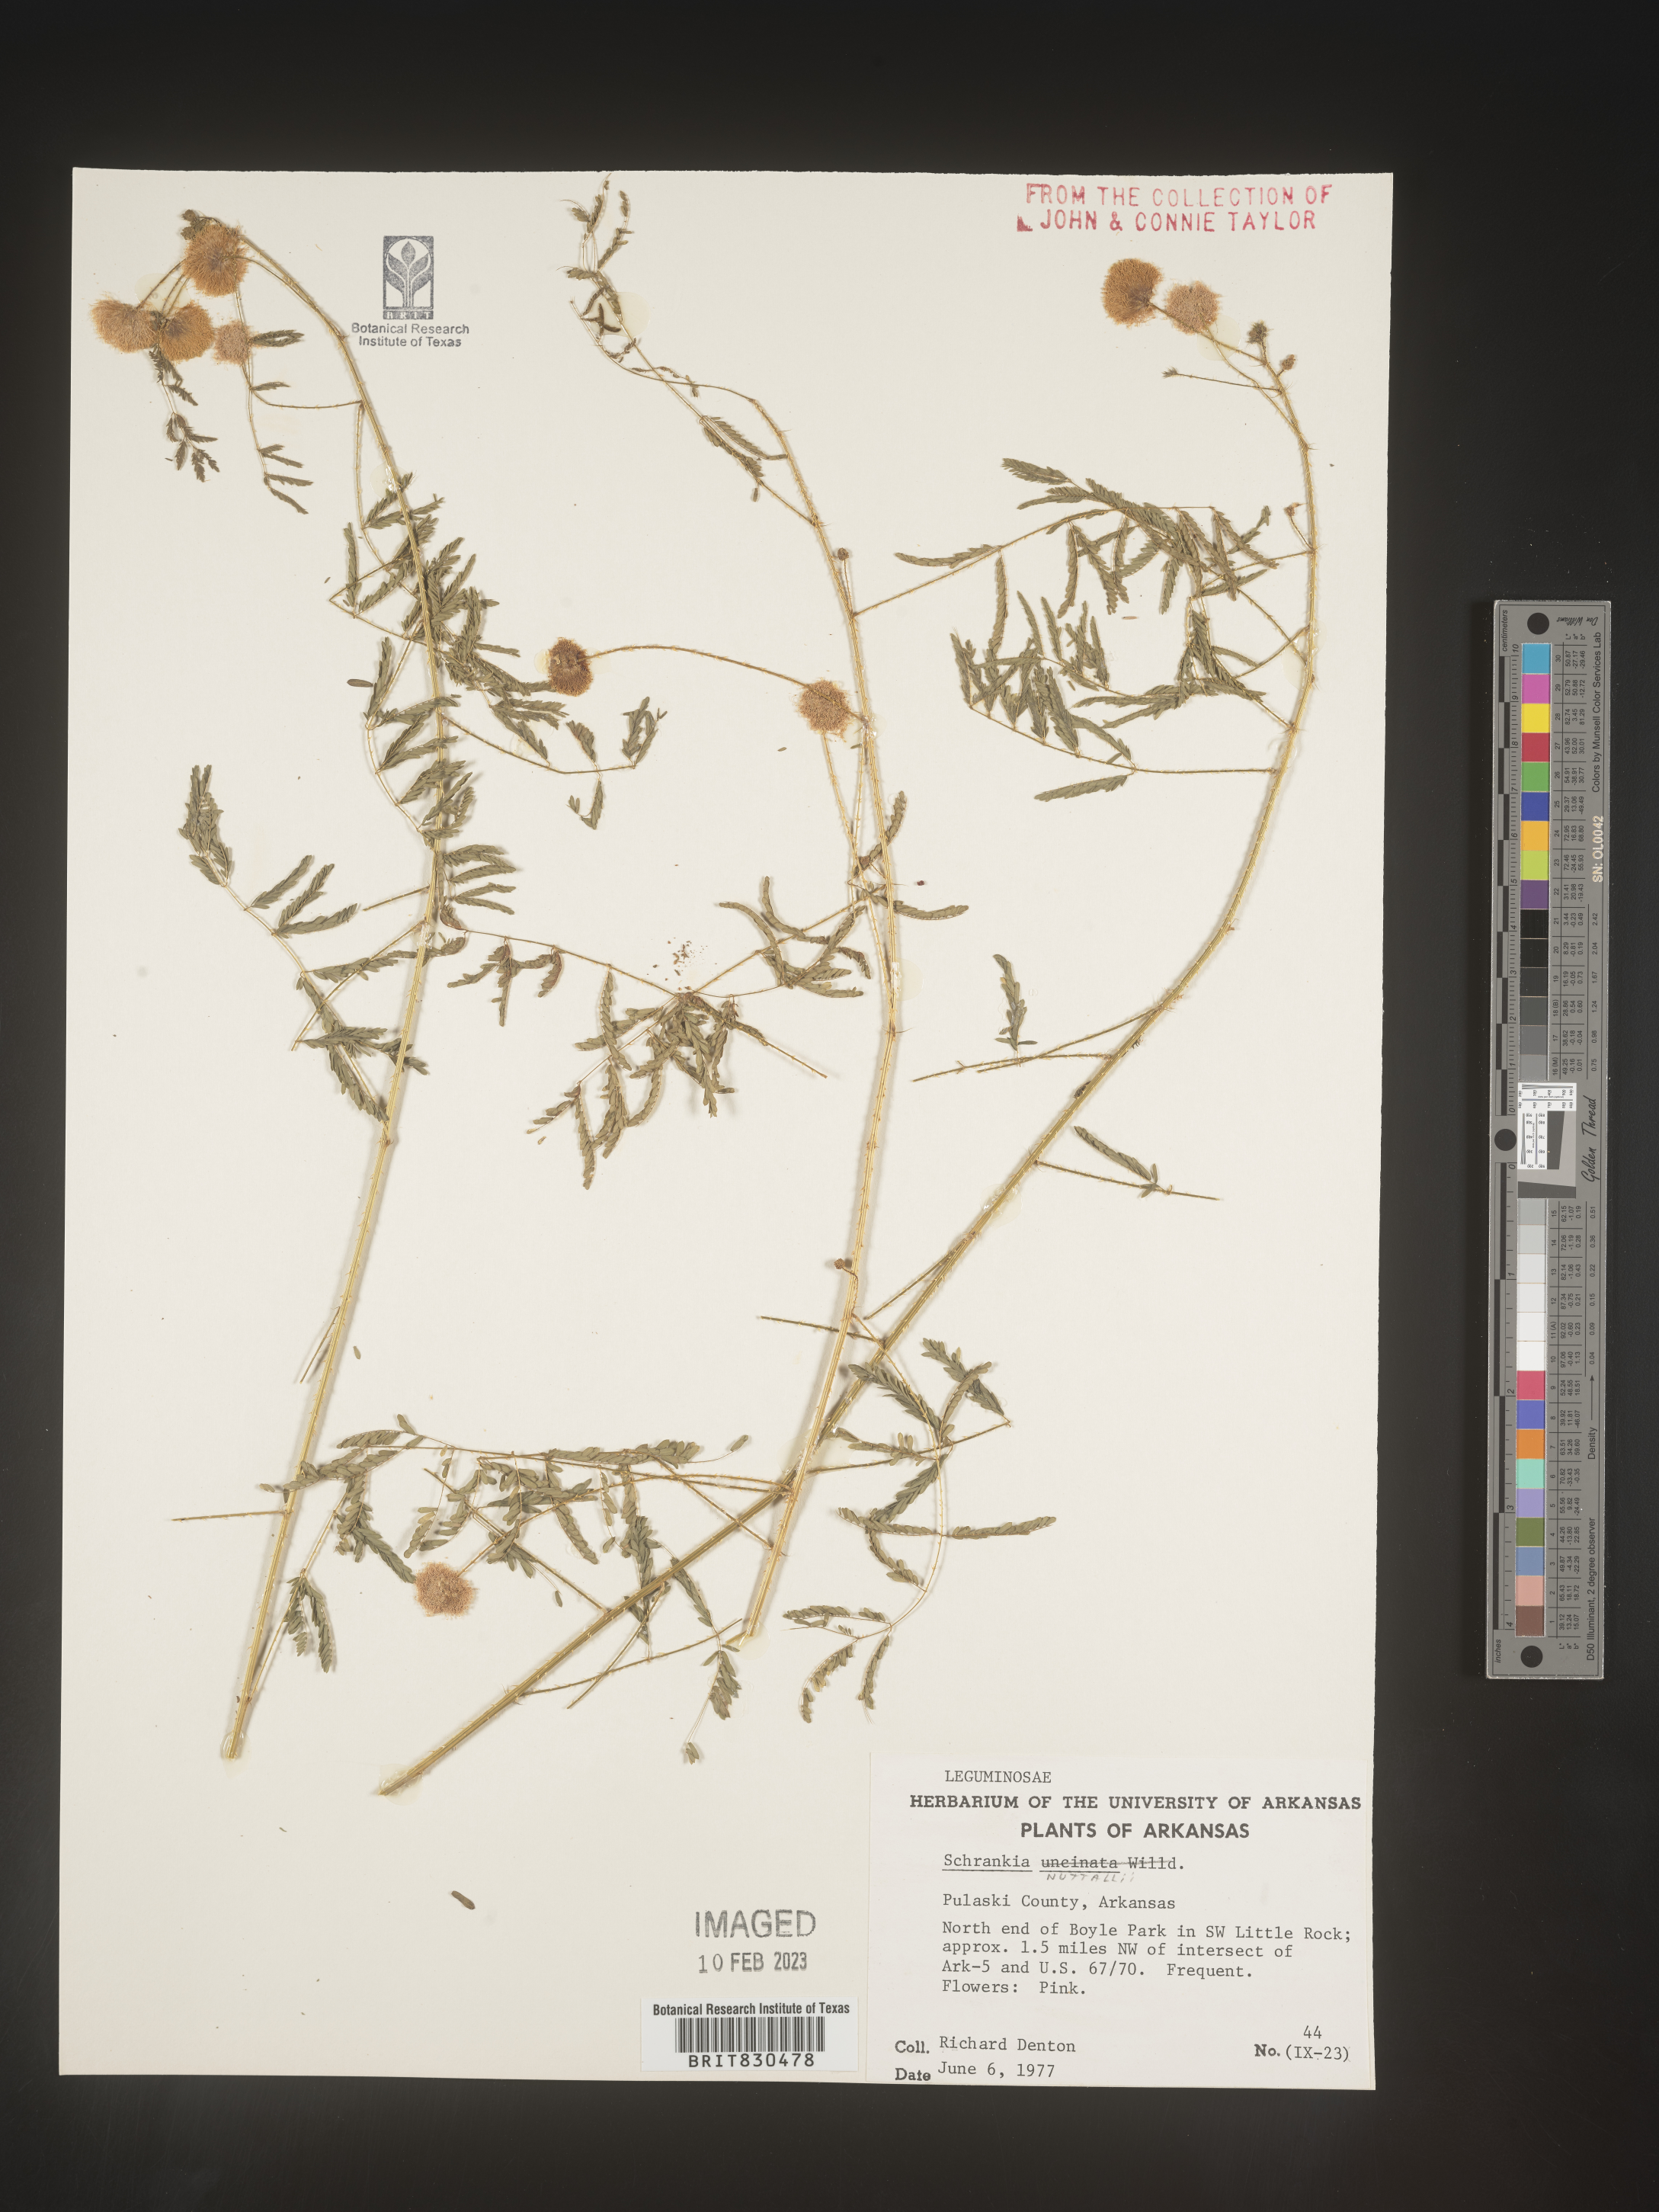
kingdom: Plantae
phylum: Tracheophyta
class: Magnoliopsida
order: Fabales
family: Fabaceae
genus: Mimosa
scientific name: Mimosa quadrivalvis
